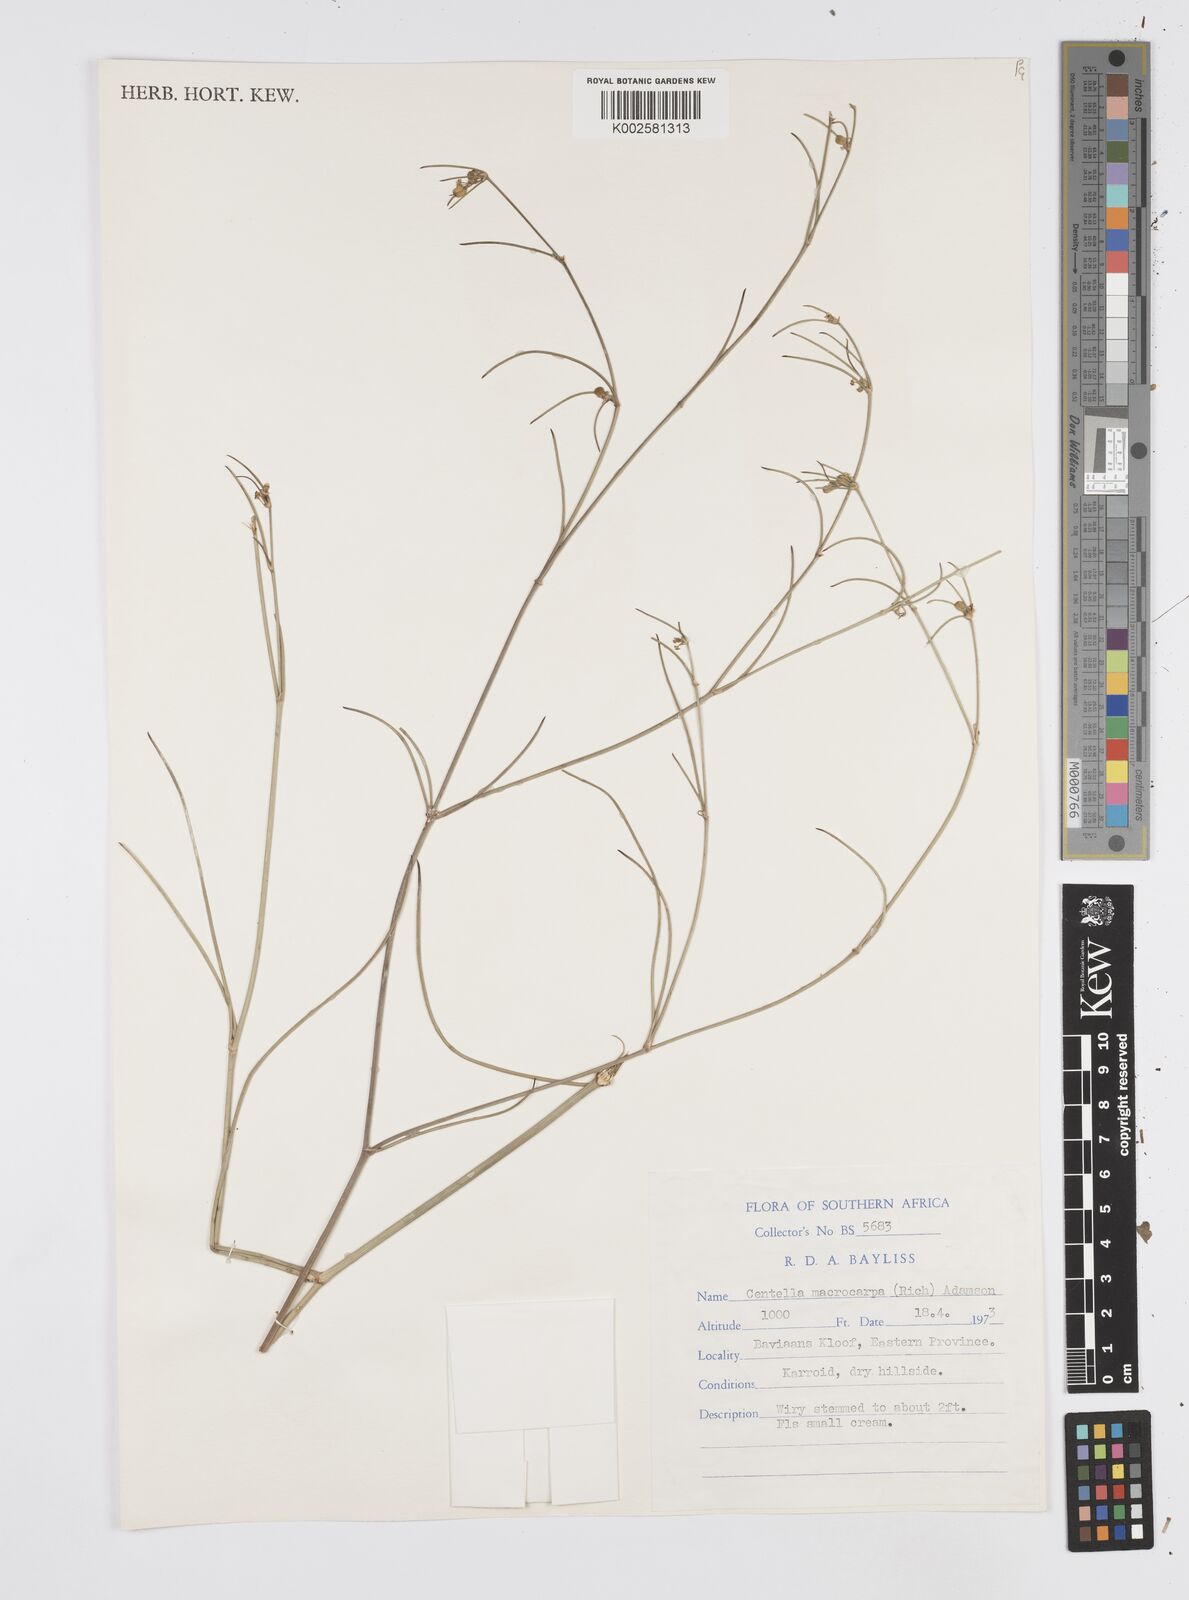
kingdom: Plantae
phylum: Tracheophyta
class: Magnoliopsida
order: Apiales
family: Apiaceae
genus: Centella
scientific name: Centella macrocarpa
